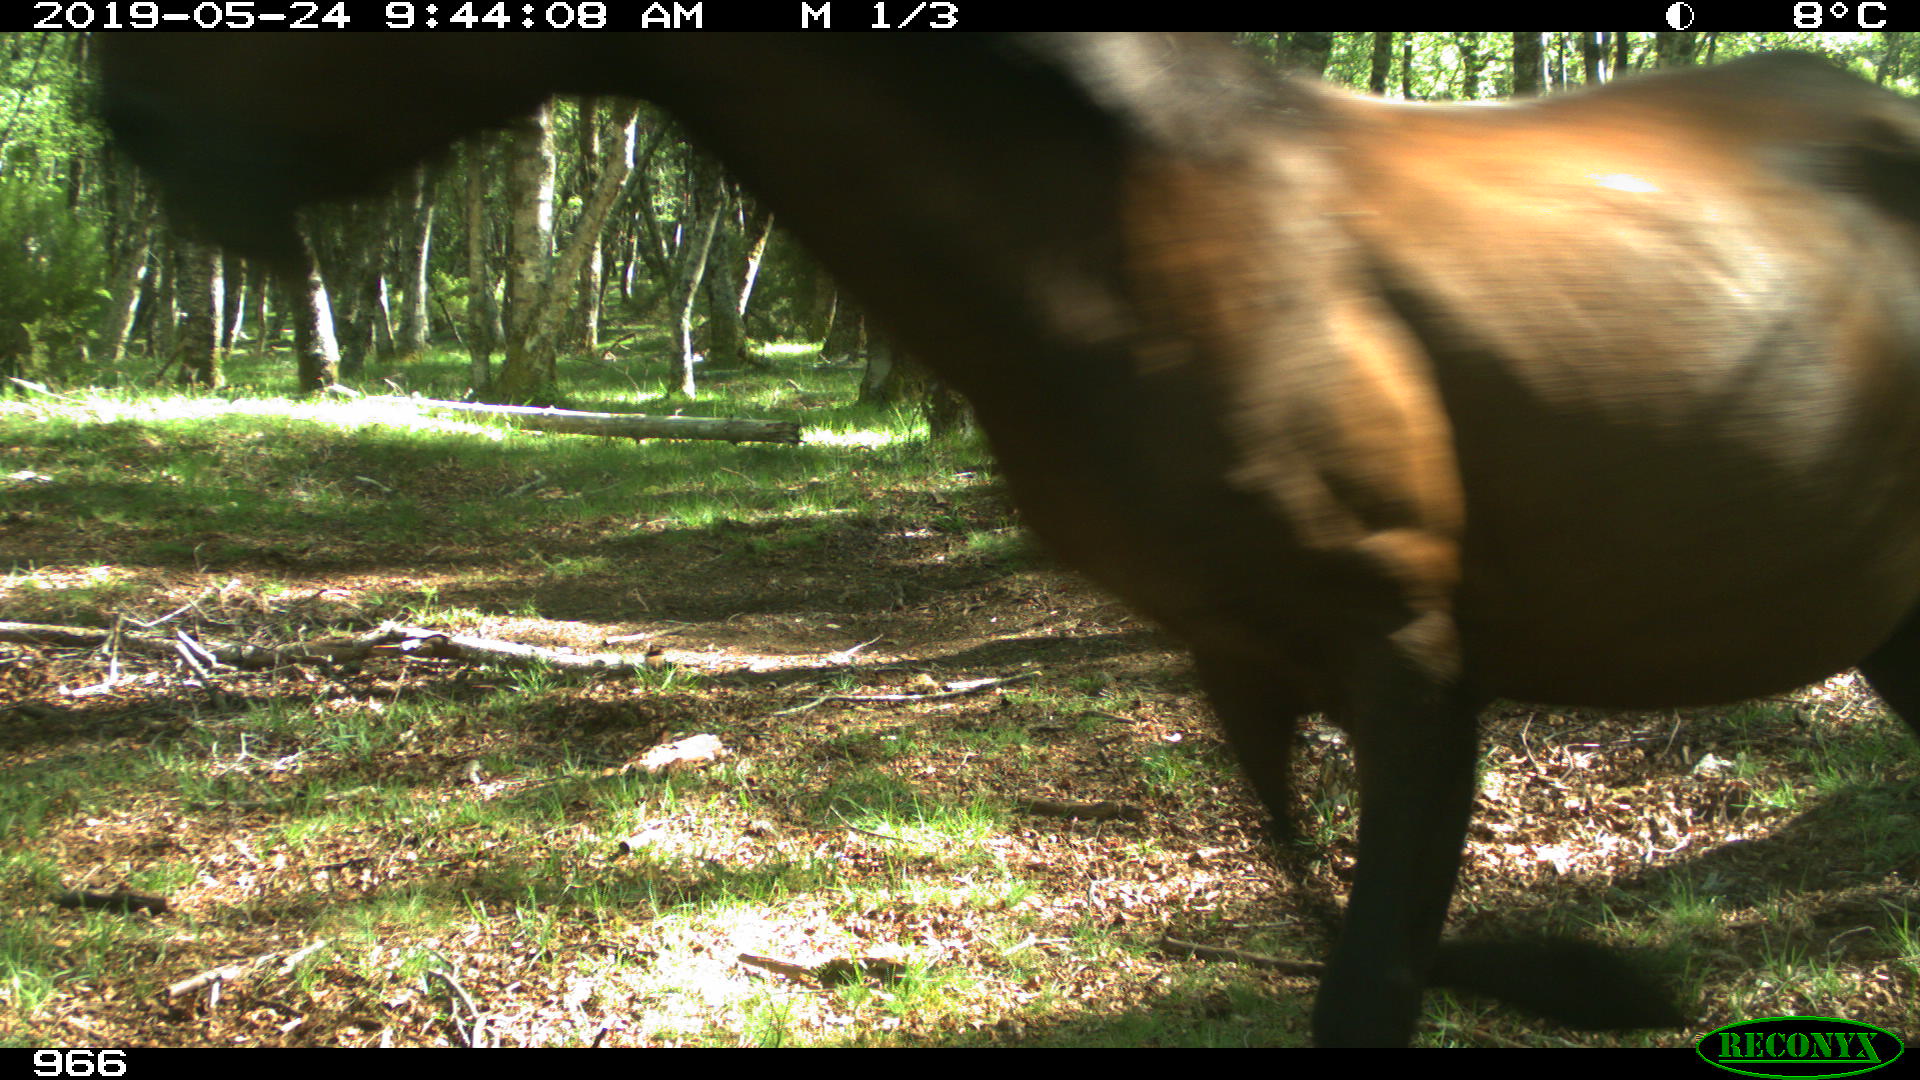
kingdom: Animalia
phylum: Chordata
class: Mammalia
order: Perissodactyla
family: Equidae
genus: Equus
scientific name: Equus caballus
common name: Horse
